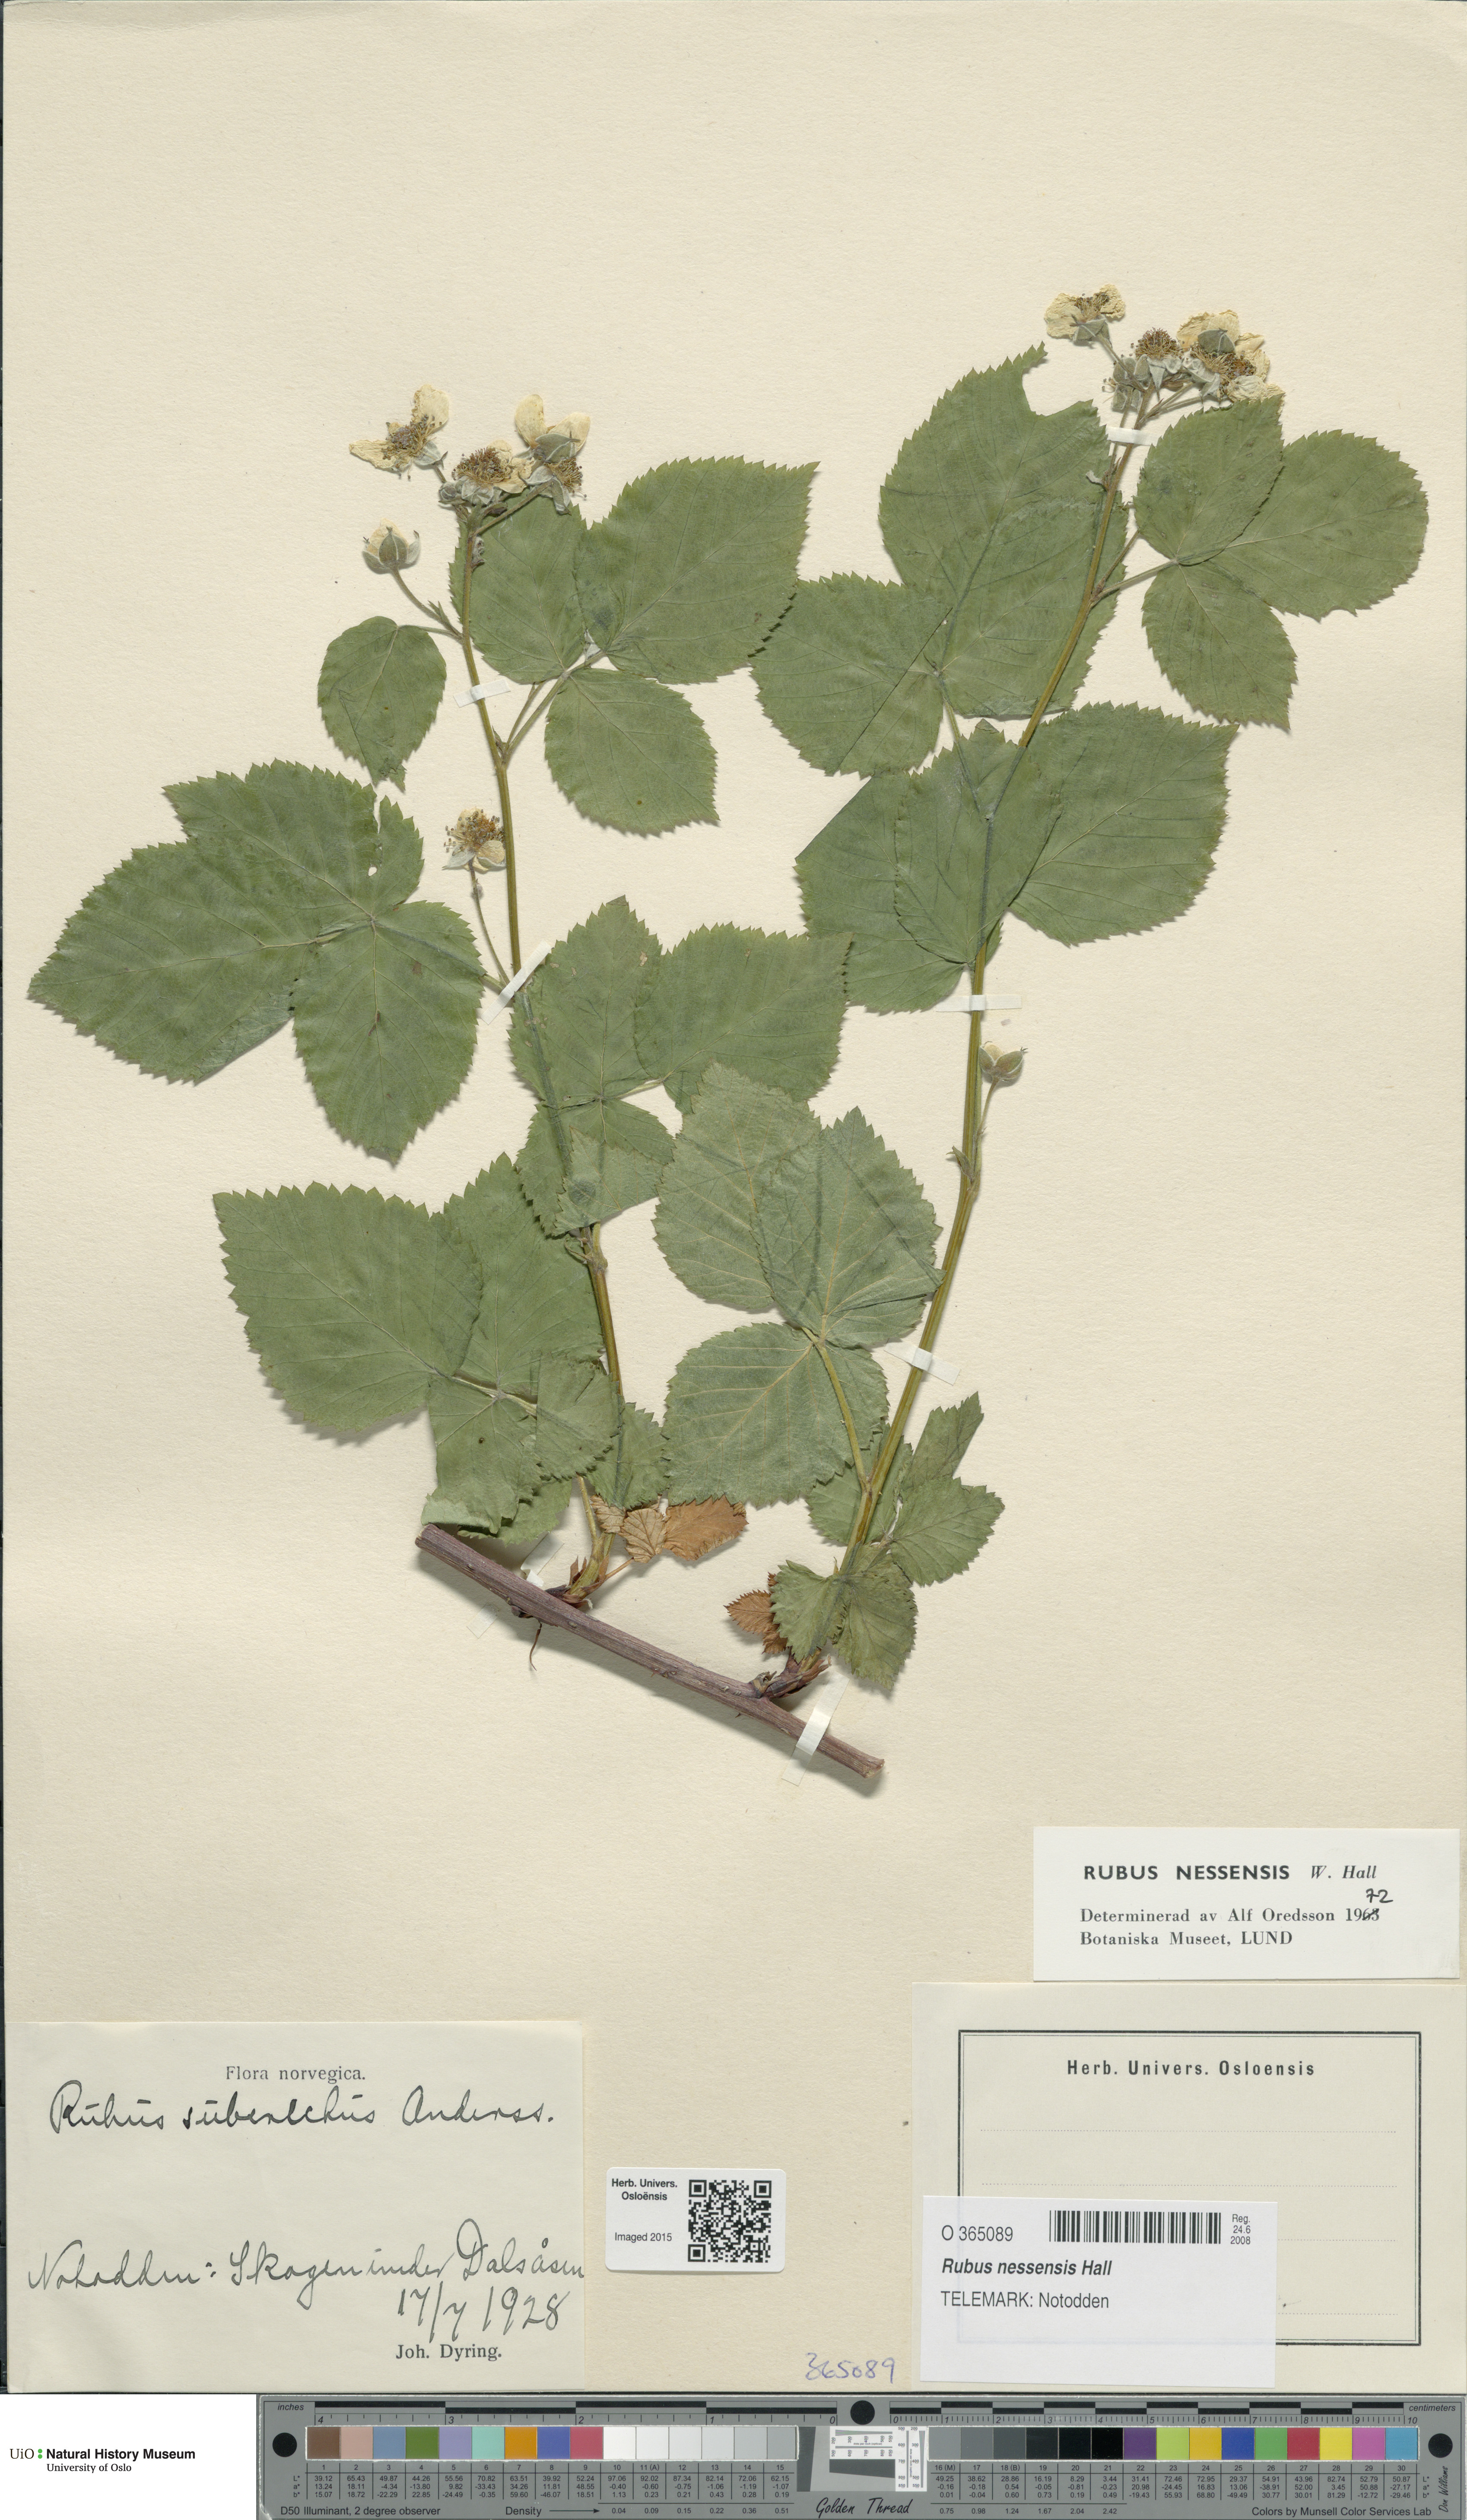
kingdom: Plantae
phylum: Tracheophyta
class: Magnoliopsida
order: Rosales
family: Rosaceae
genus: Rubus
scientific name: Rubus polonicus
